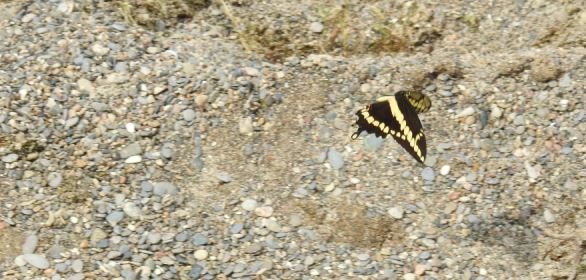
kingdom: Animalia
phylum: Arthropoda
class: Insecta
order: Lepidoptera
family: Papilionidae
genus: Papilio
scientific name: Papilio cresphontes
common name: Eastern Giant Swallowtail
